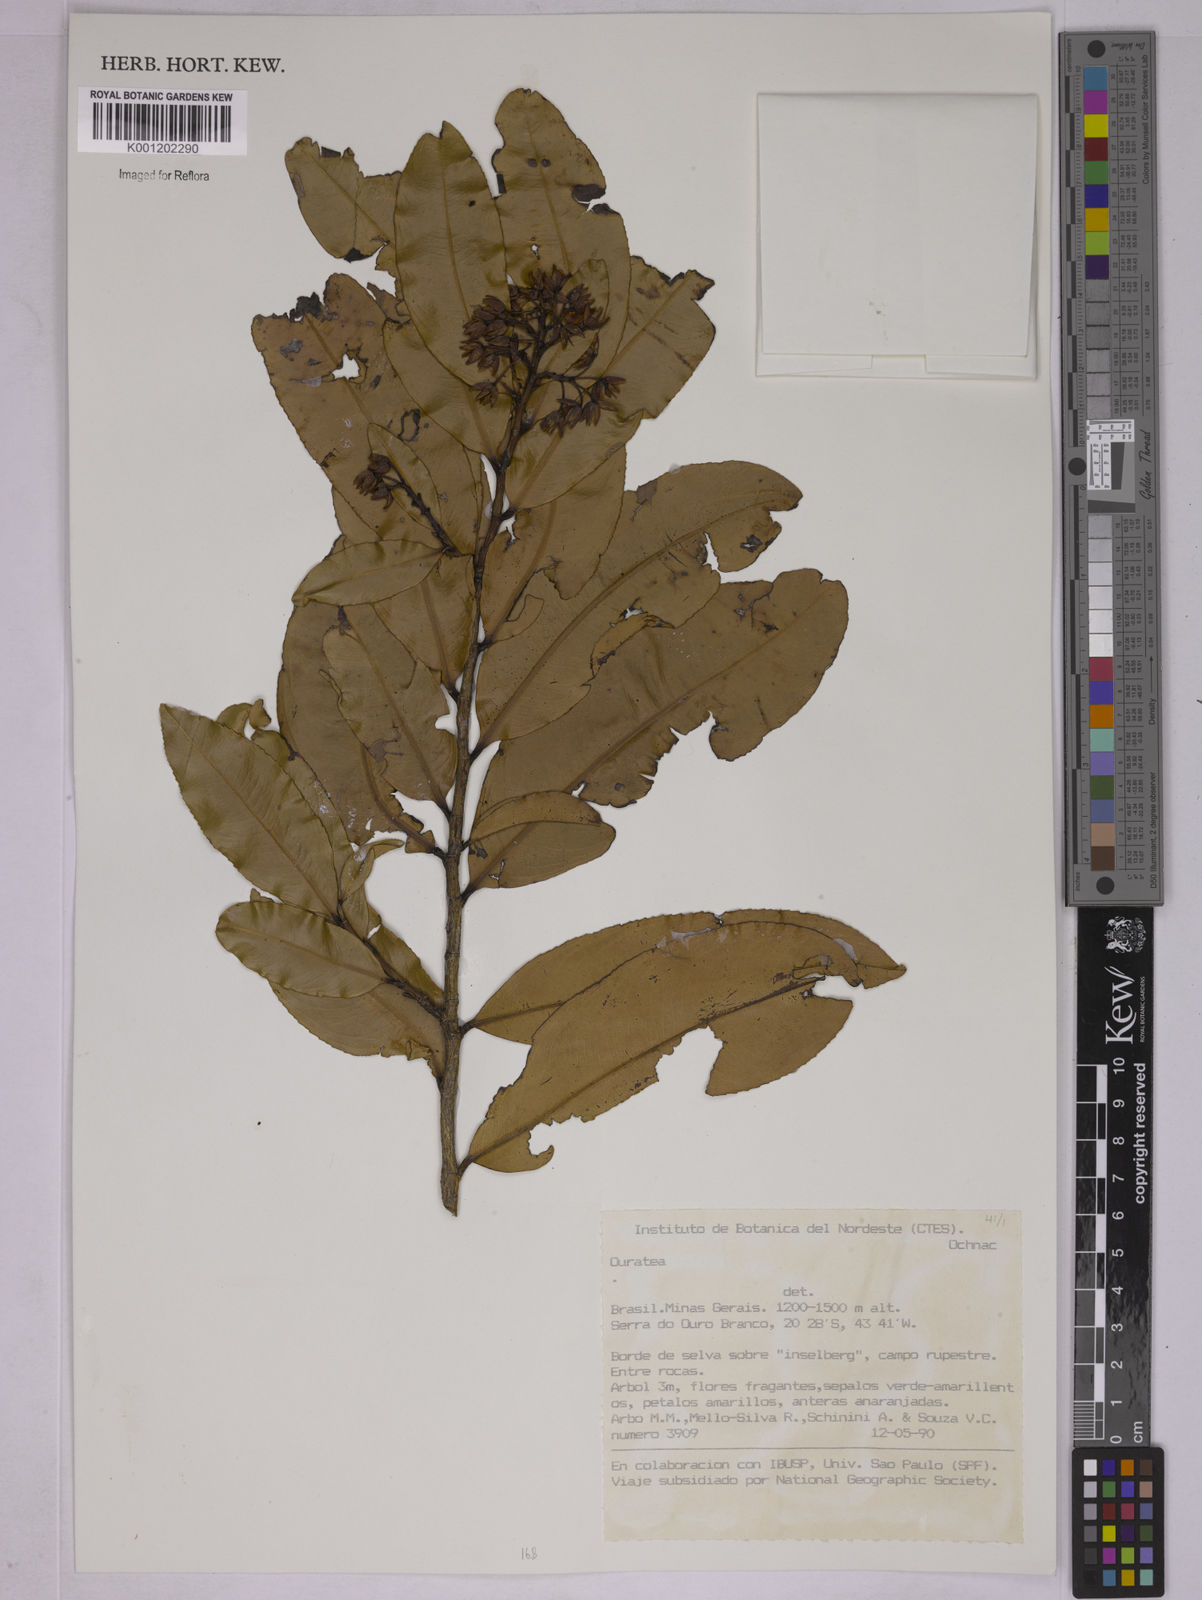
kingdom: Plantae
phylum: Tracheophyta
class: Magnoliopsida
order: Malpighiales
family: Ochnaceae
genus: Ouratea
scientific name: Ouratea
